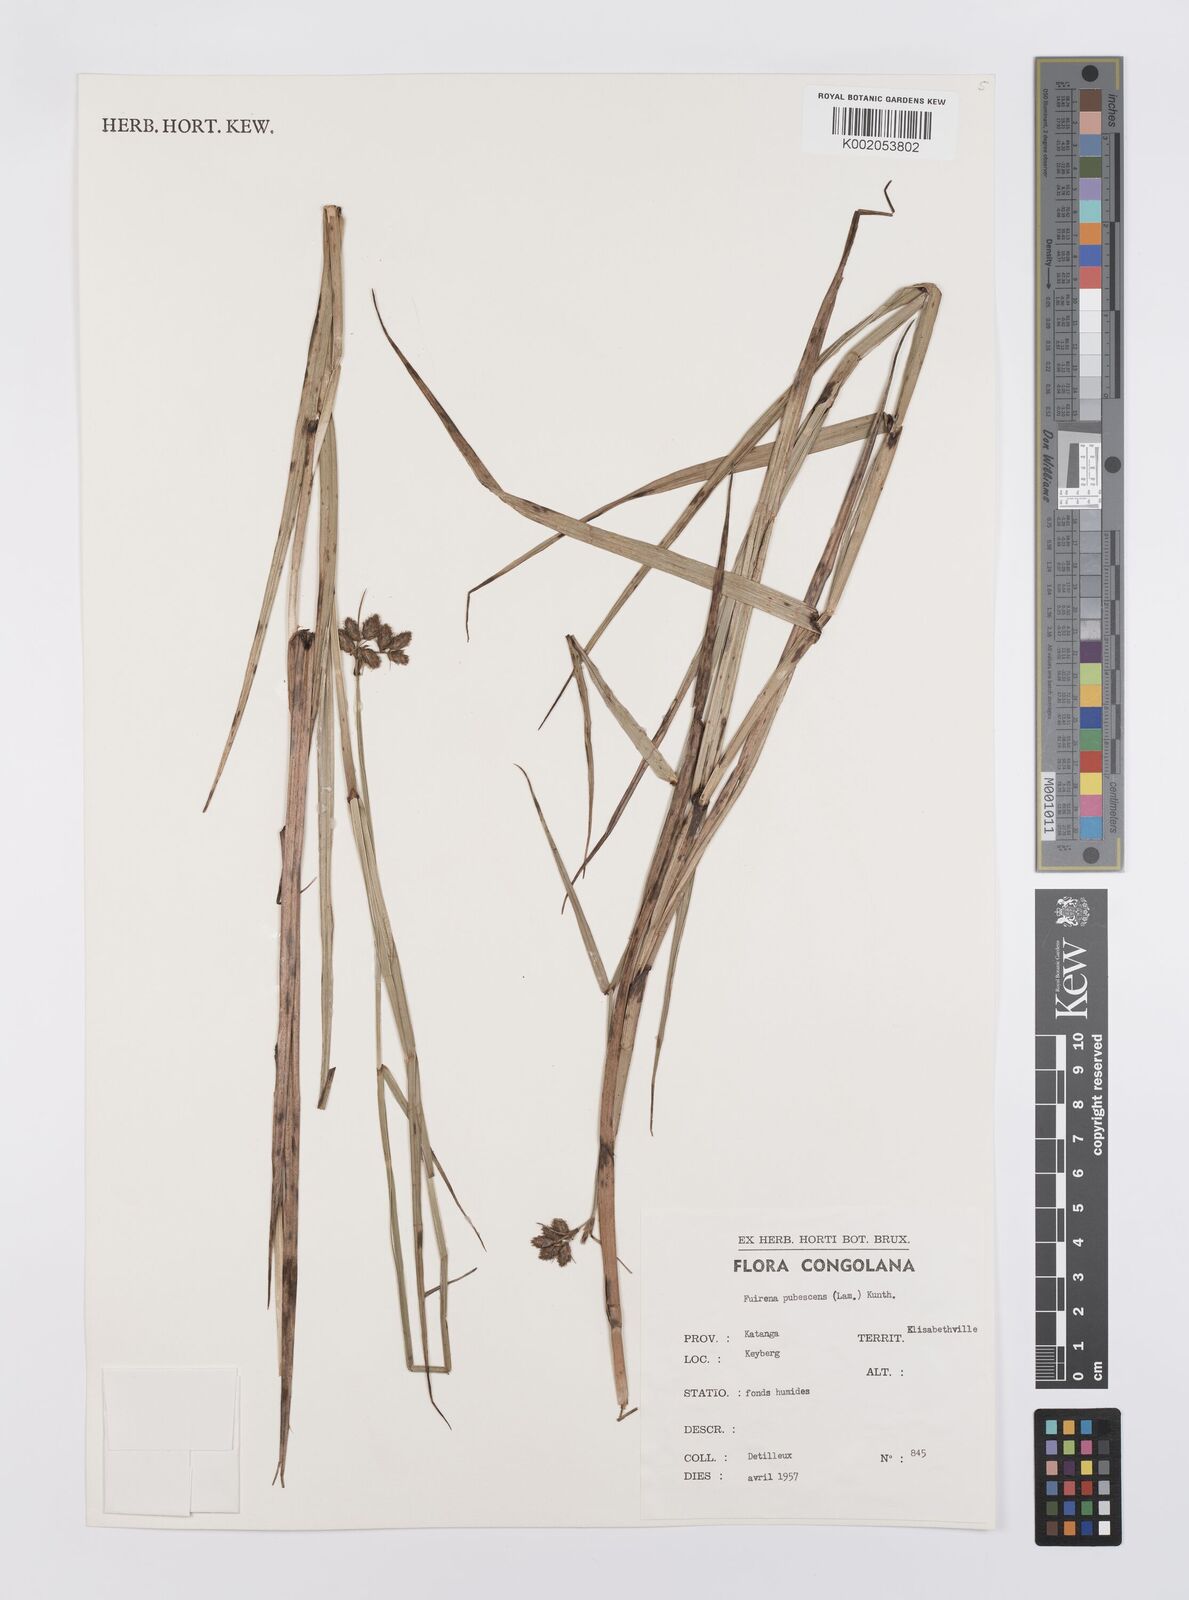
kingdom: Plantae
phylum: Tracheophyta
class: Liliopsida
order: Poales
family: Cyperaceae
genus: Fuirena
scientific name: Fuirena pubescens
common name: Hairy sedge
